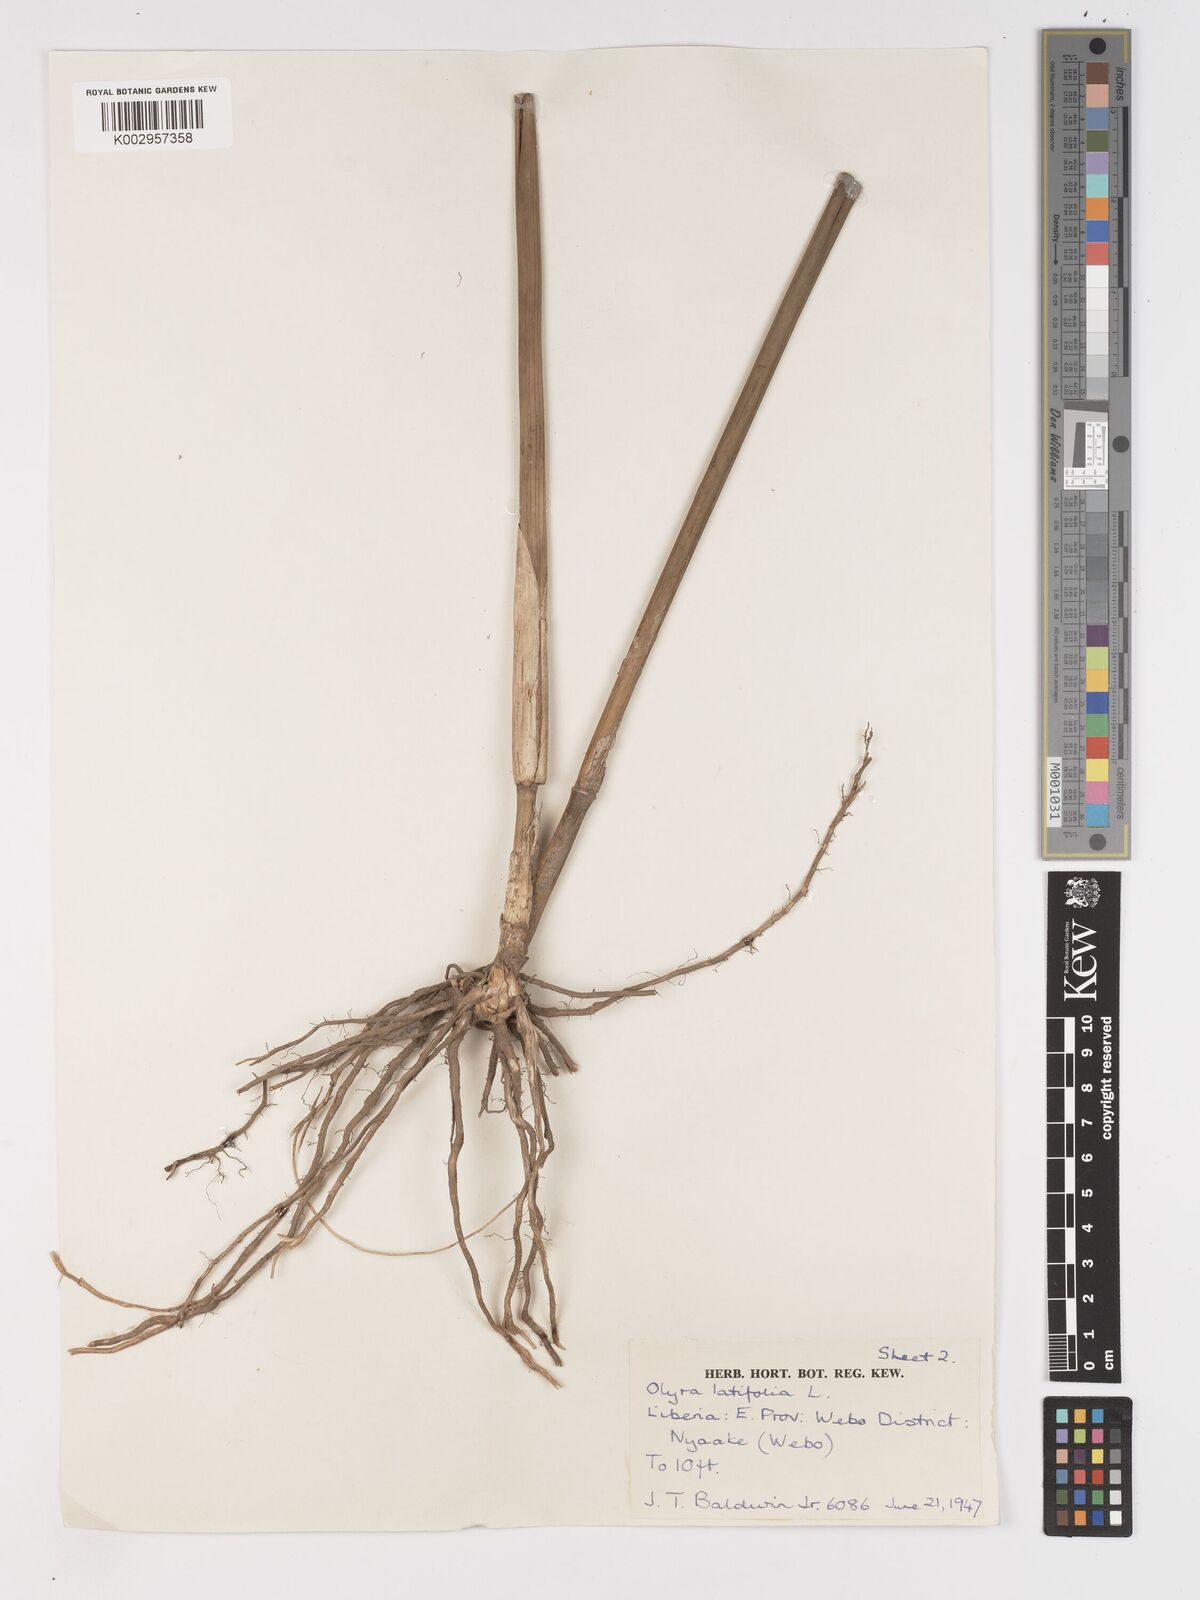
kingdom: Plantae
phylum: Tracheophyta
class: Liliopsida
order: Poales
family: Poaceae
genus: Olyra
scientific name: Olyra latifolia
